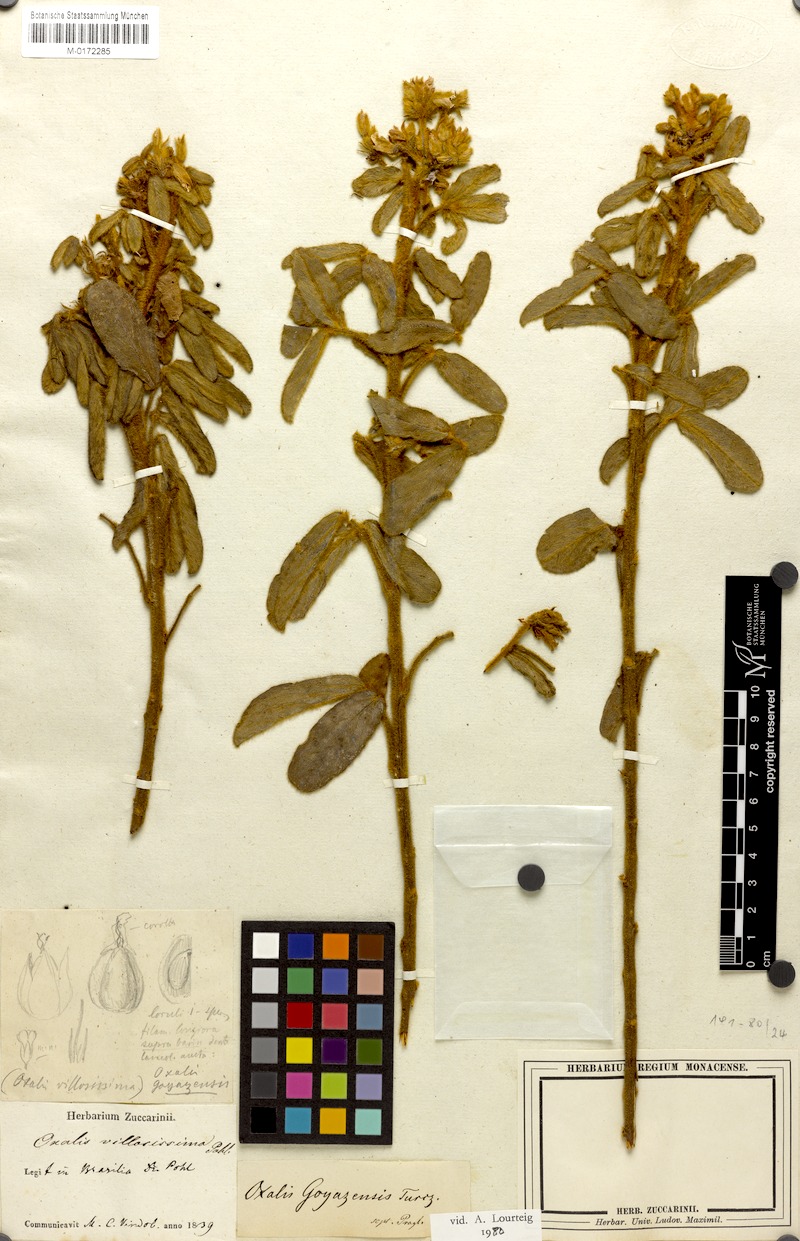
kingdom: Plantae
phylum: Tracheophyta
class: Magnoliopsida
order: Oxalidales
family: Oxalidaceae
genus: Oxalis
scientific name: Oxalis goyazensis
